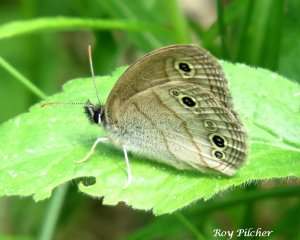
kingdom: Animalia
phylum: Arthropoda
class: Insecta
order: Lepidoptera
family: Nymphalidae
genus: Euptychia
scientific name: Euptychia cymela
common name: Little Wood Satyr
